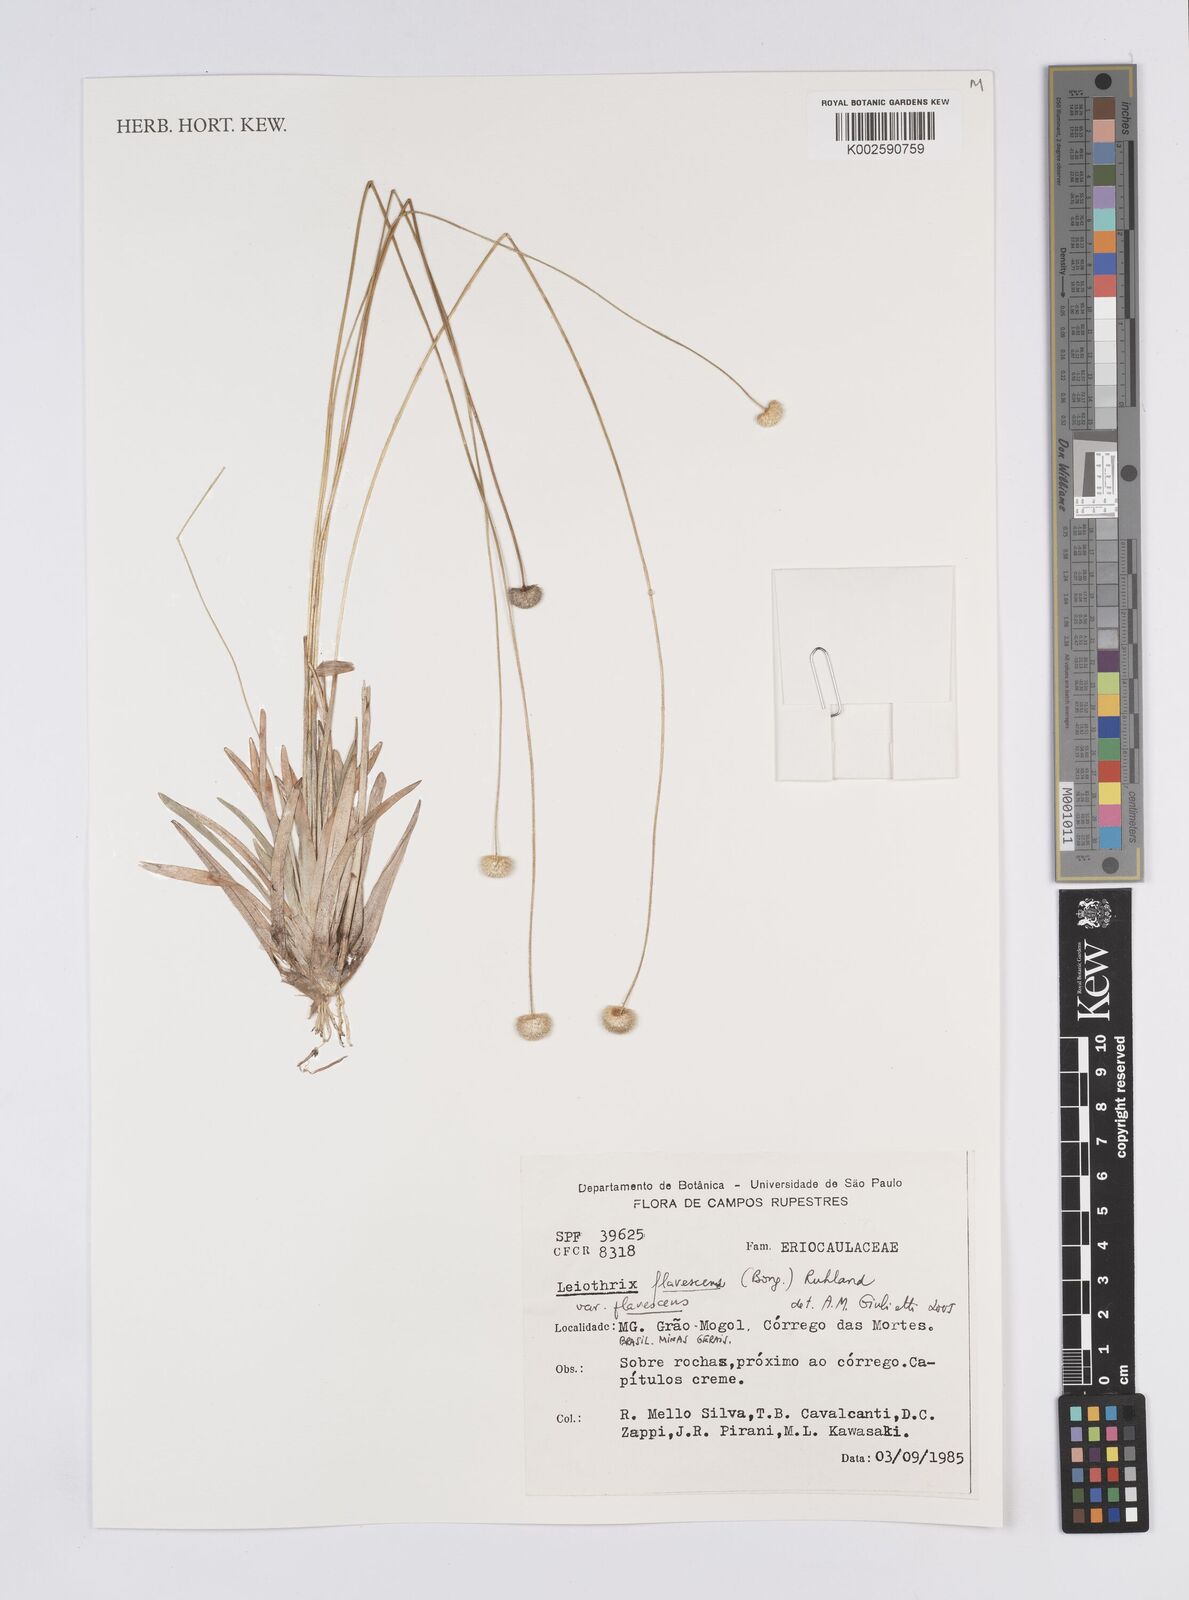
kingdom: Plantae
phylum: Tracheophyta
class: Liliopsida
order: Poales
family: Eriocaulaceae
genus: Leiothrix
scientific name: Leiothrix flavescens
